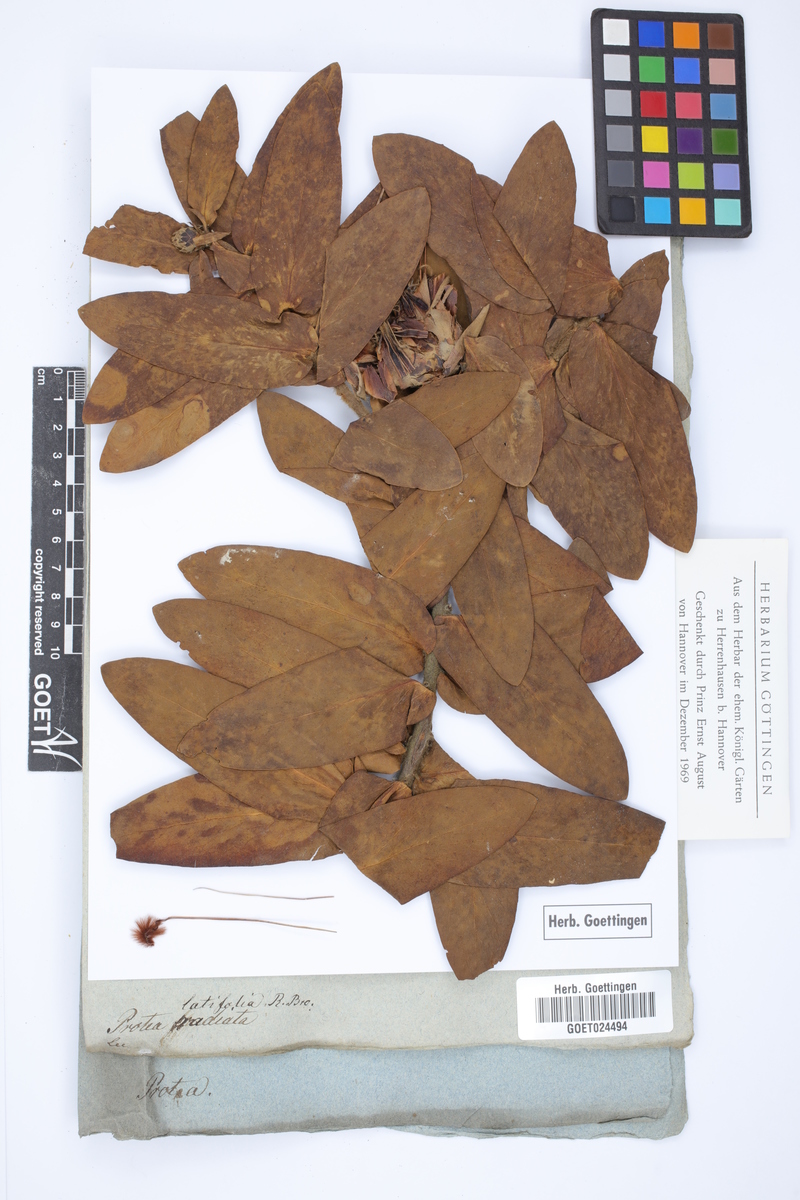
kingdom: Plantae
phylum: Tracheophyta
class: Magnoliopsida
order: Proteales
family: Proteaceae
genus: Protea
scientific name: Protea eximia
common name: Broad-leaved sugarbush
